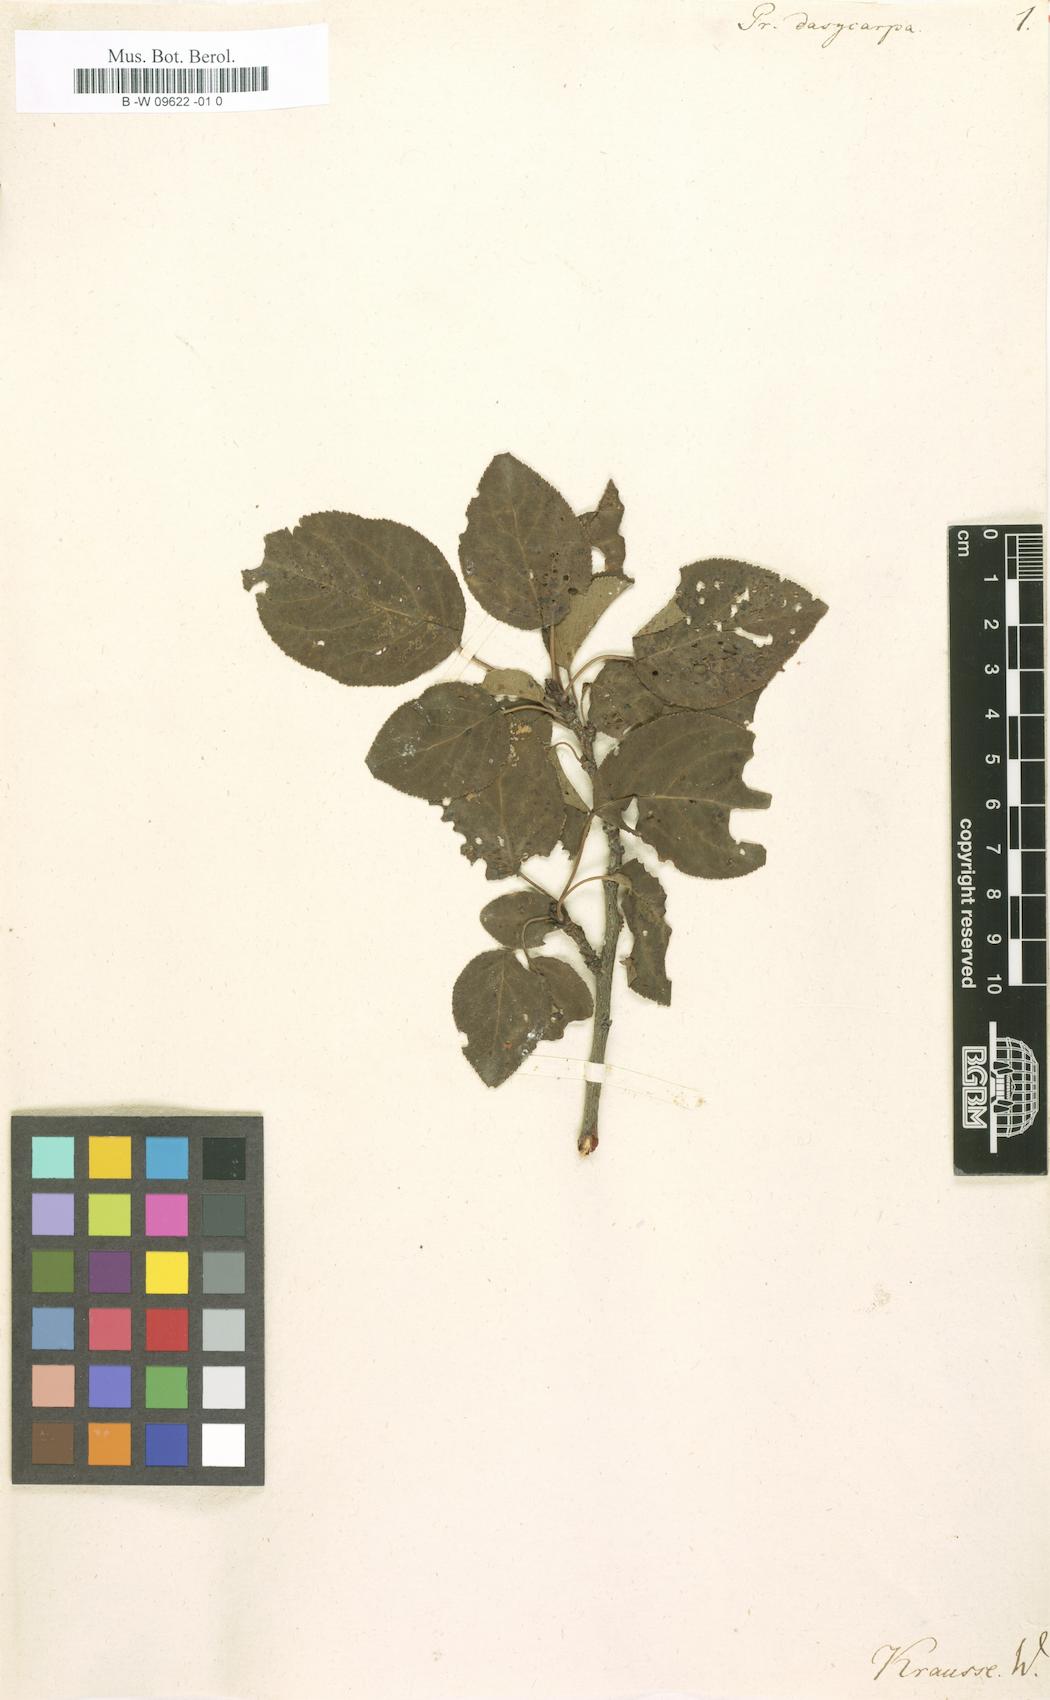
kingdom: Plantae
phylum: Tracheophyta
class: Magnoliopsida
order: Rosales
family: Rosaceae
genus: Prunus
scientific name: Prunus dasycarpa
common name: Purple apricot
